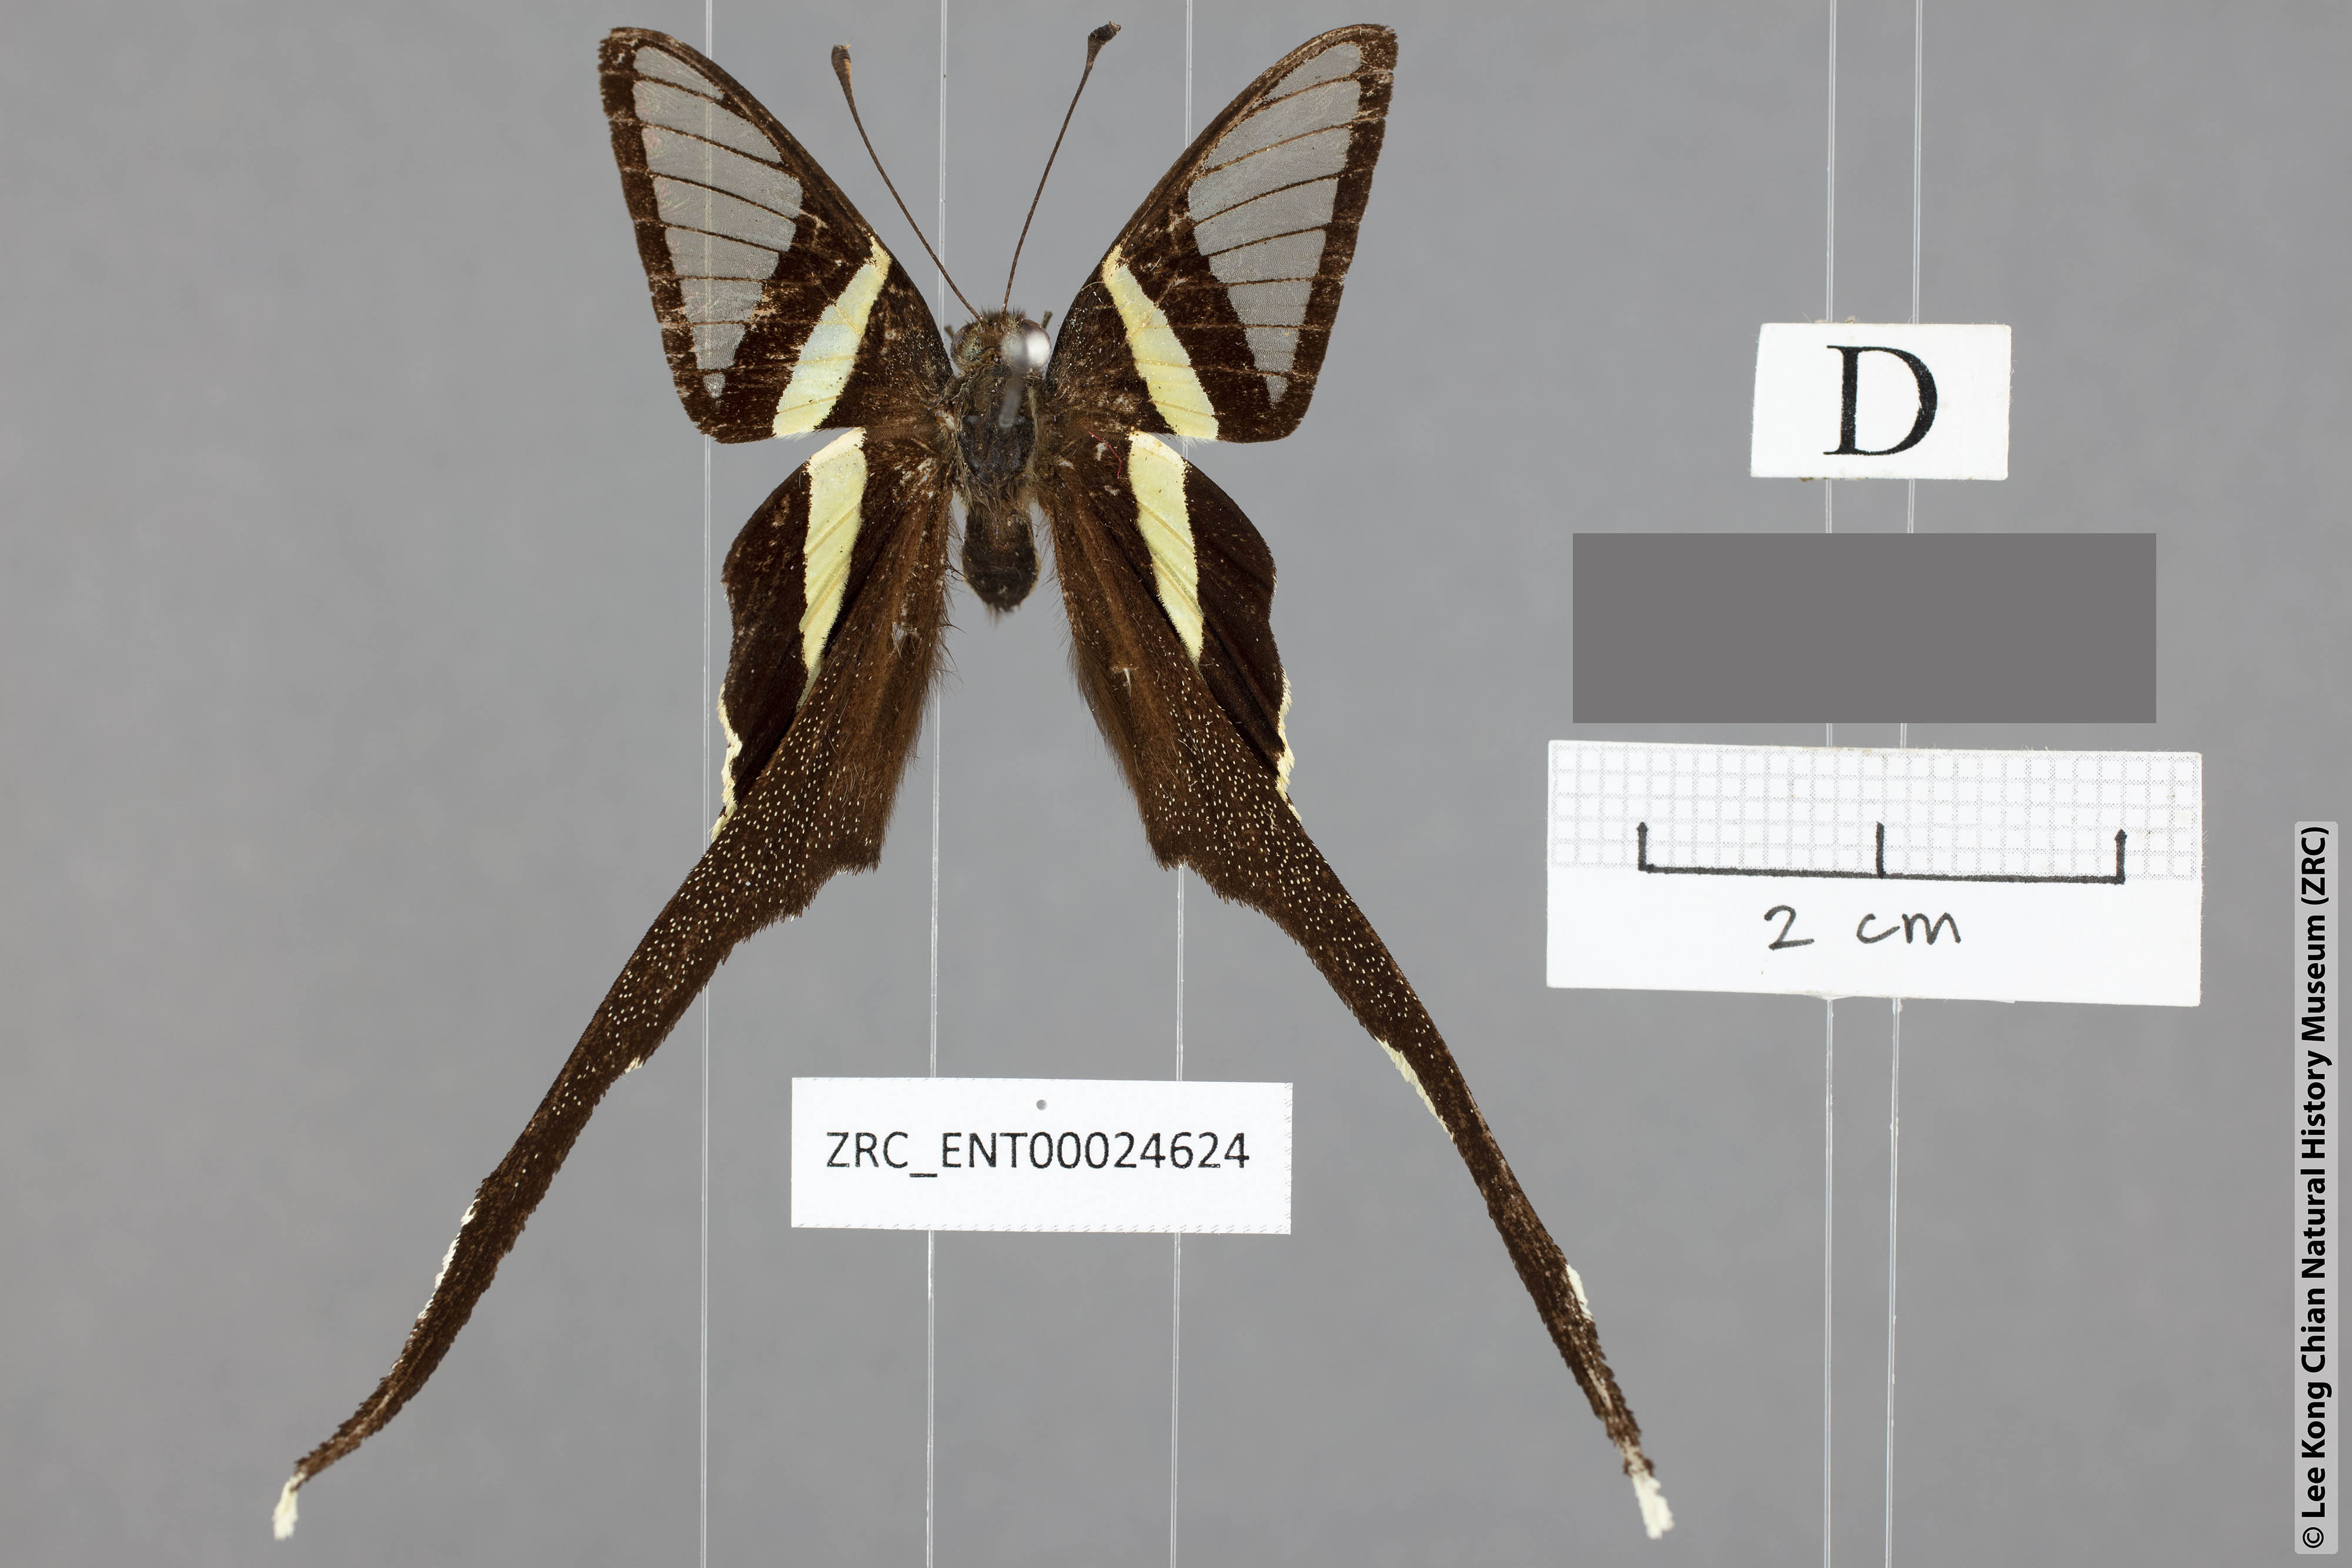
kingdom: Animalia
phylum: Arthropoda
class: Insecta
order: Lepidoptera
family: Papilionidae
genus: Lamproptera
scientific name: Lamproptera meges
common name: Green dragontail
